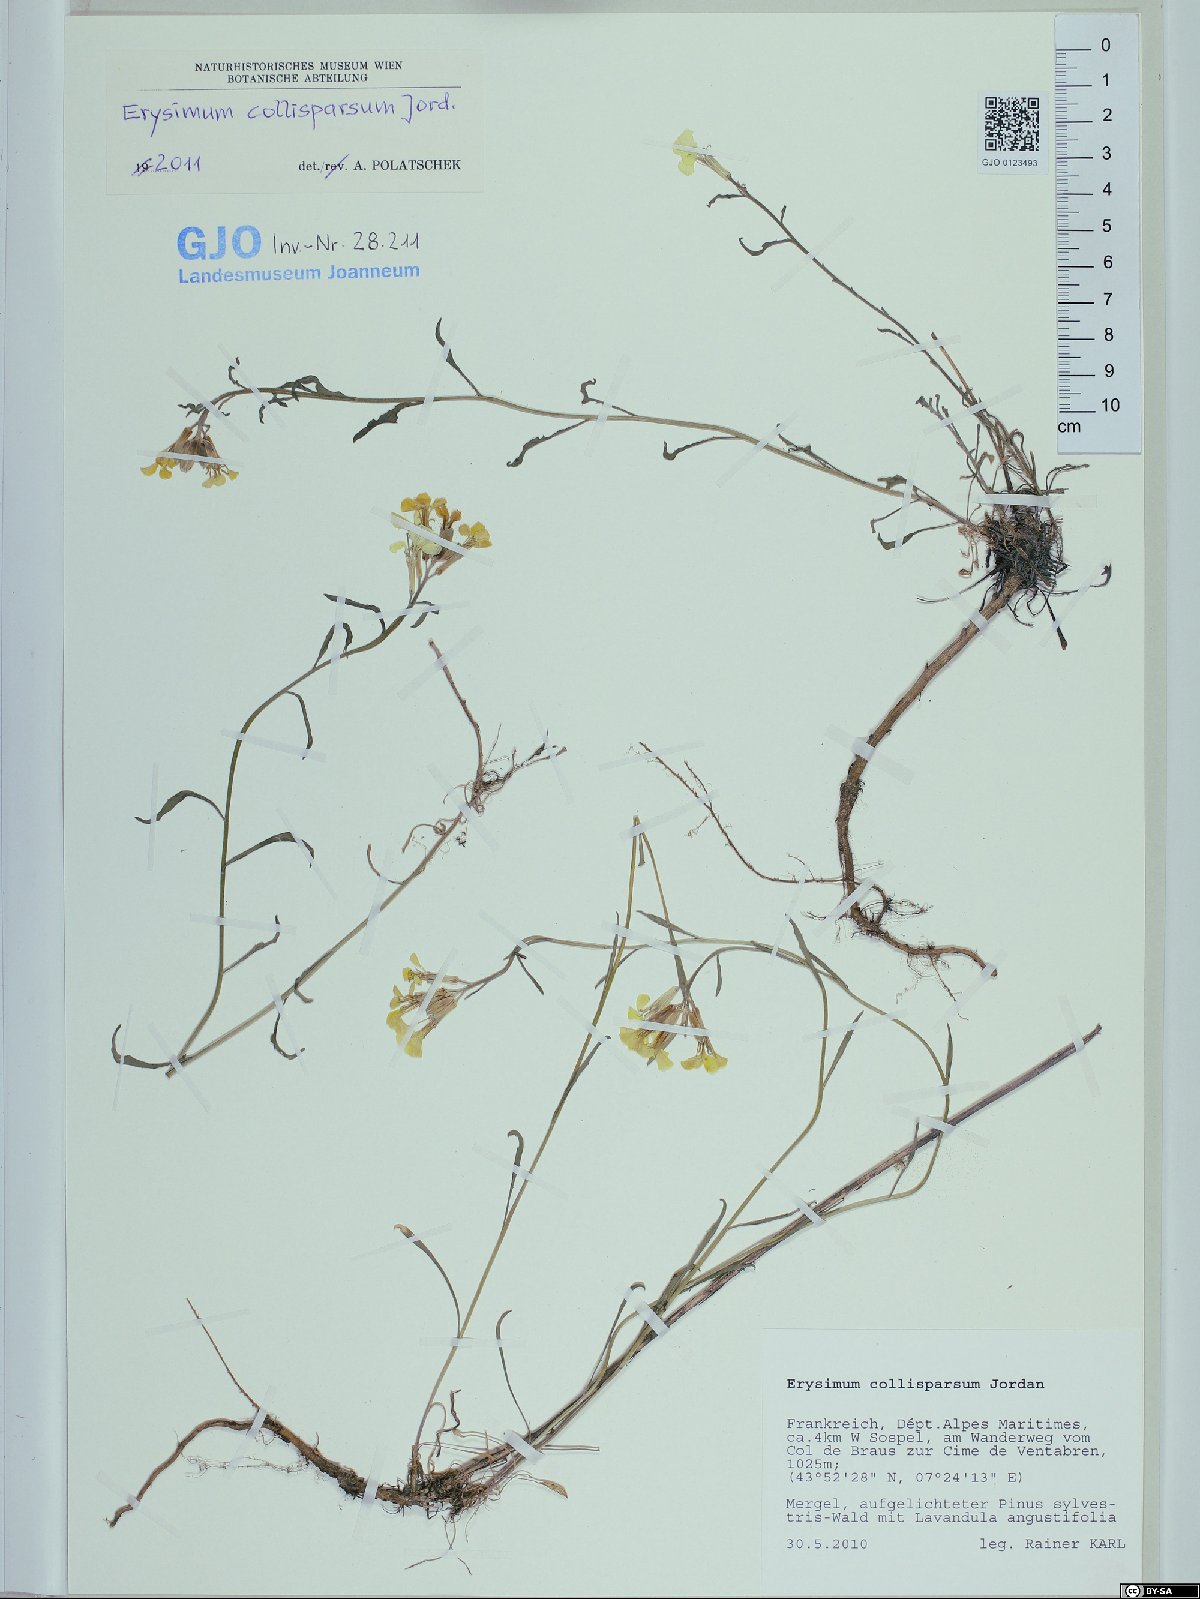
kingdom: Plantae
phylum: Tracheophyta
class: Magnoliopsida
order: Brassicales
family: Brassicaceae
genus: Erysimum
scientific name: Erysimum collisparsum
